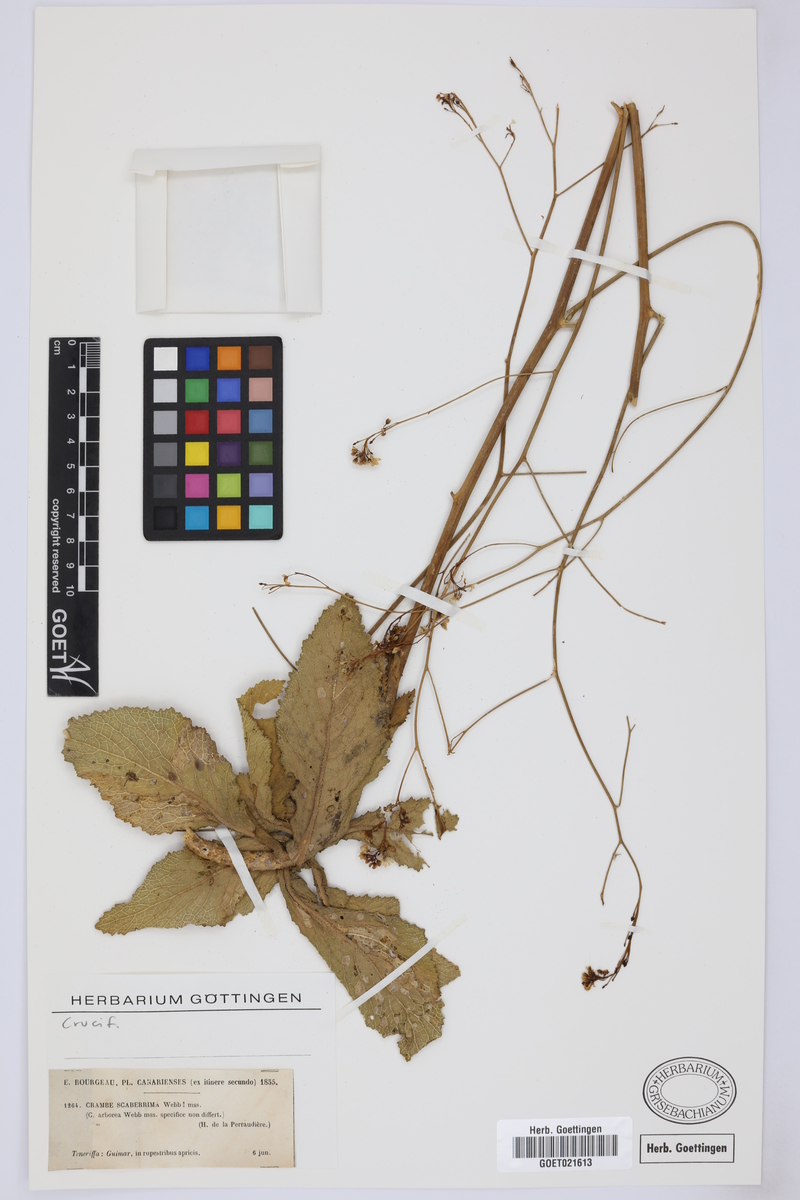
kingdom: Plantae
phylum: Tracheophyta
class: Magnoliopsida
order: Brassicales
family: Brassicaceae
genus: Crambe
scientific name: Crambe scaberrima
